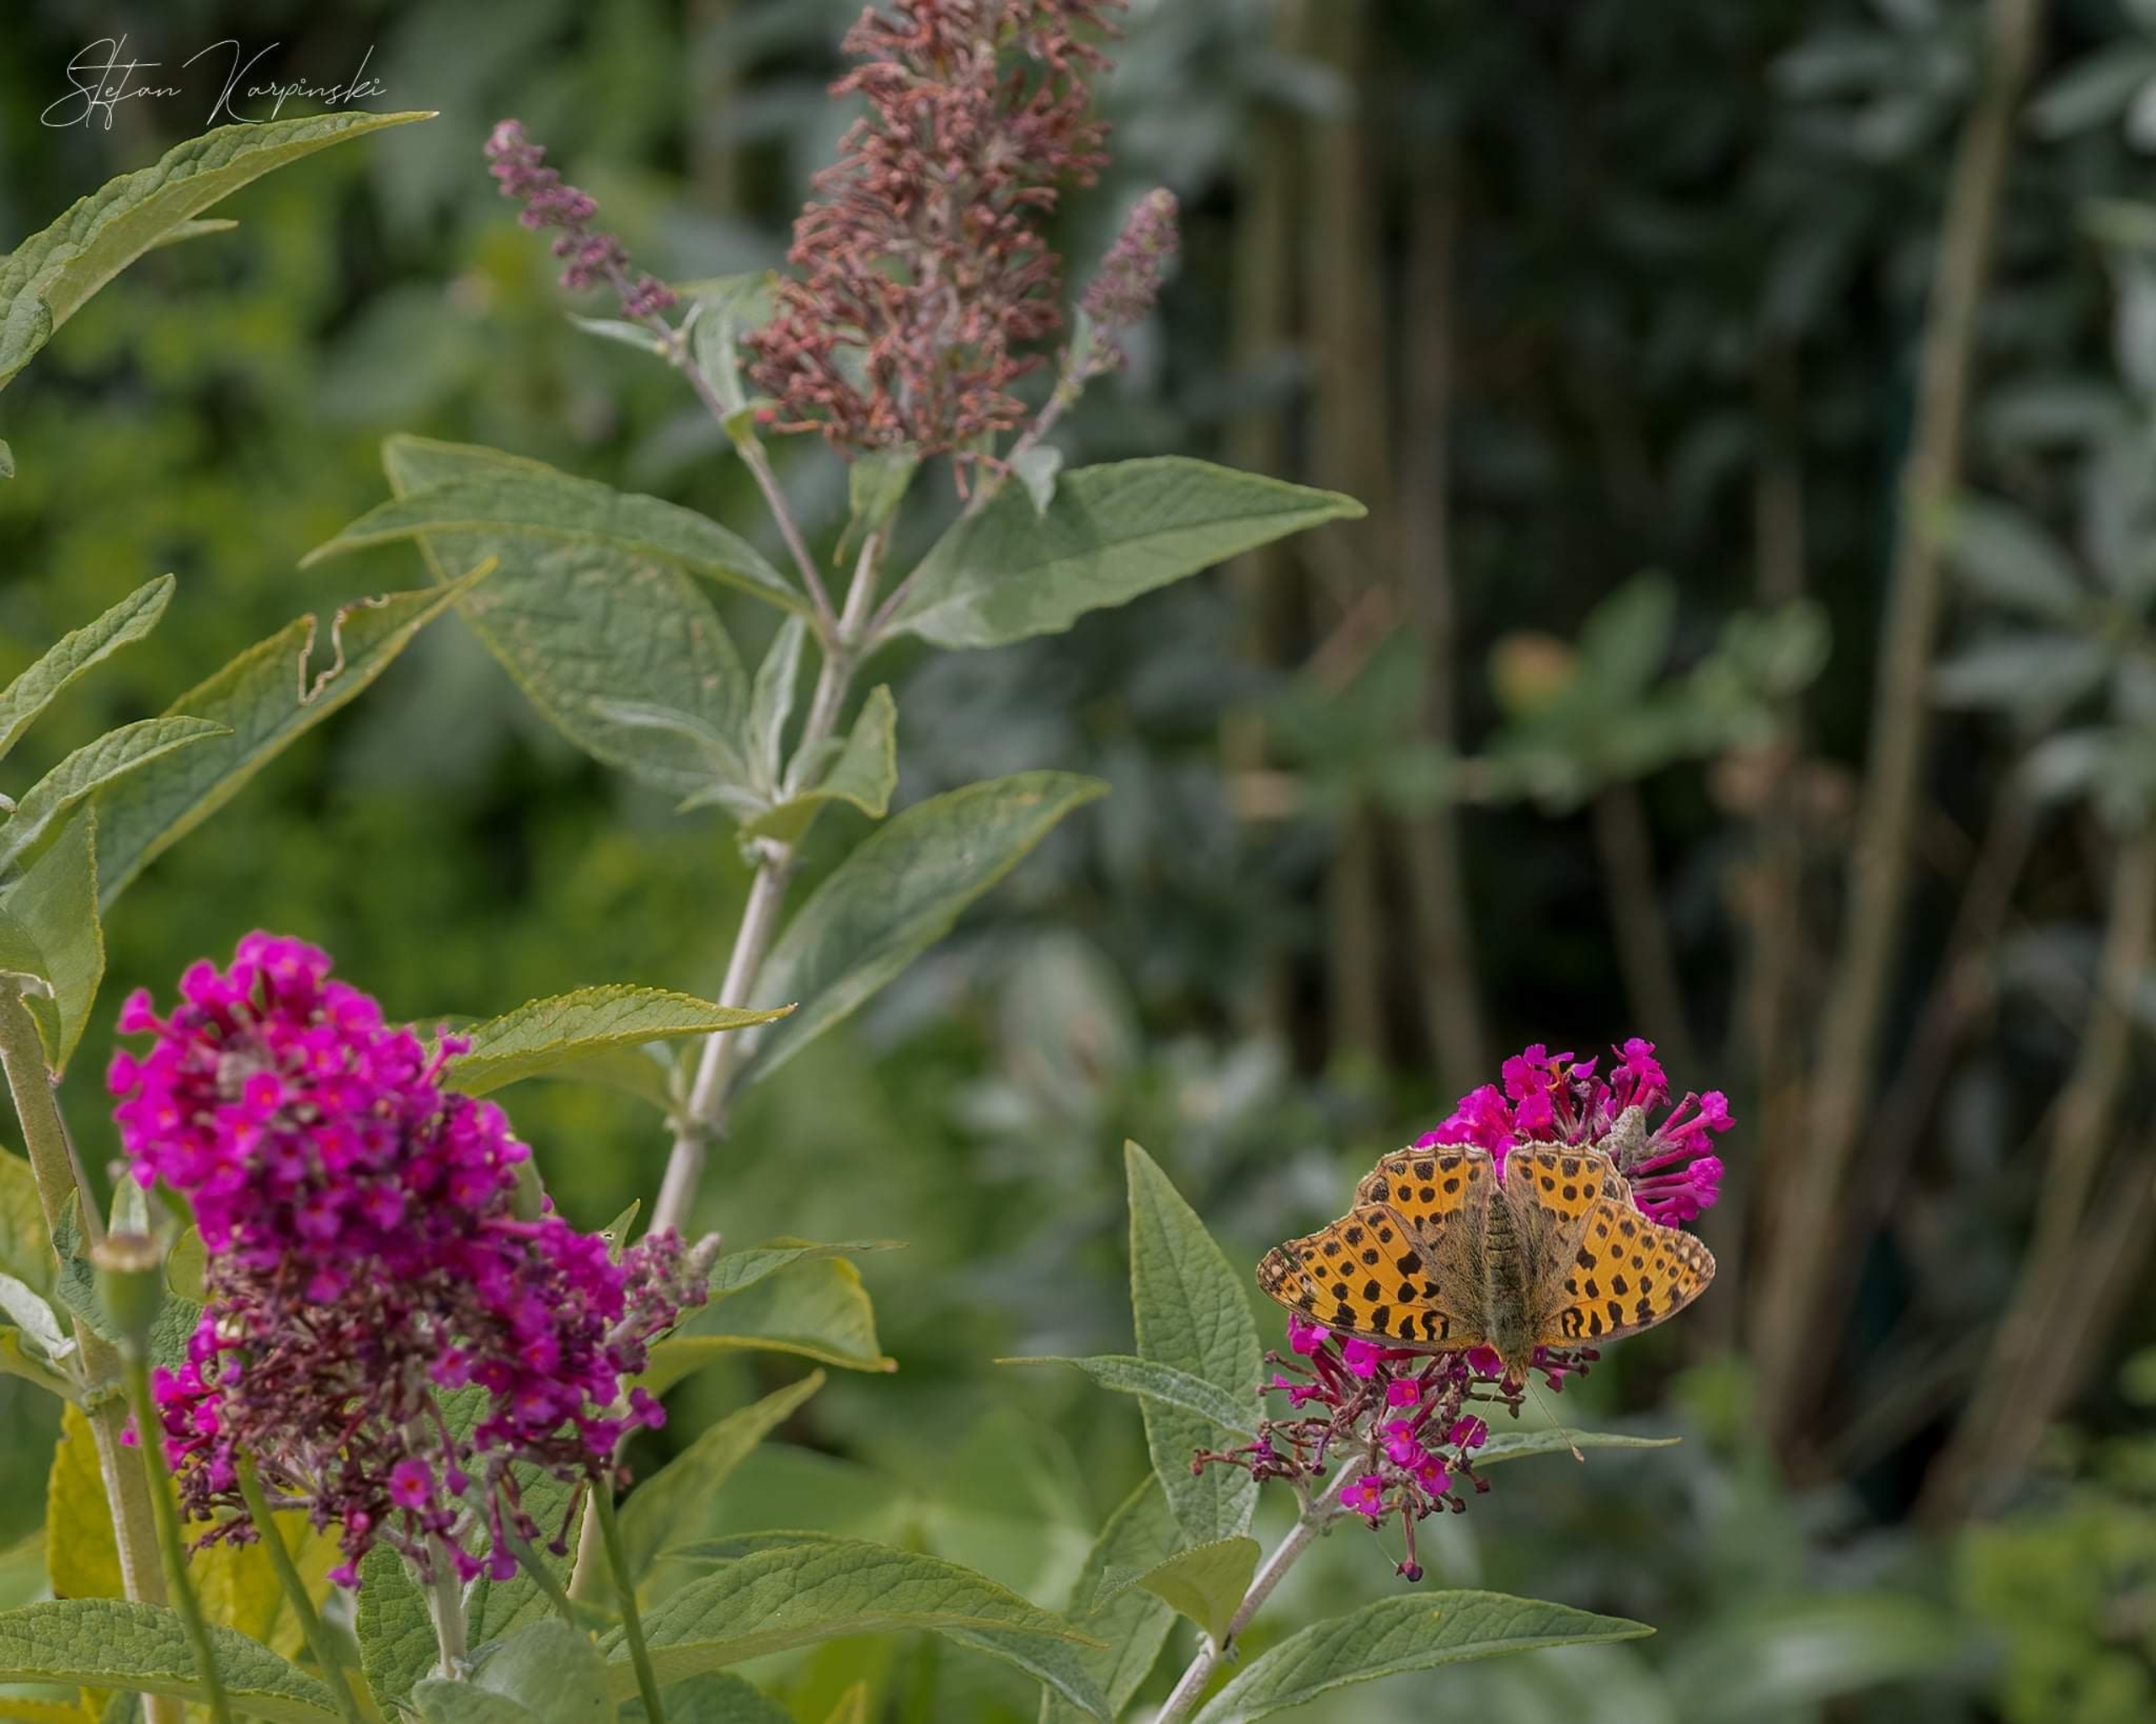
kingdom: Animalia
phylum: Arthropoda
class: Insecta
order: Lepidoptera
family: Nymphalidae
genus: Issoria
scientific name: Issoria lathonia
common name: Storplettet perlemorsommerfugl
